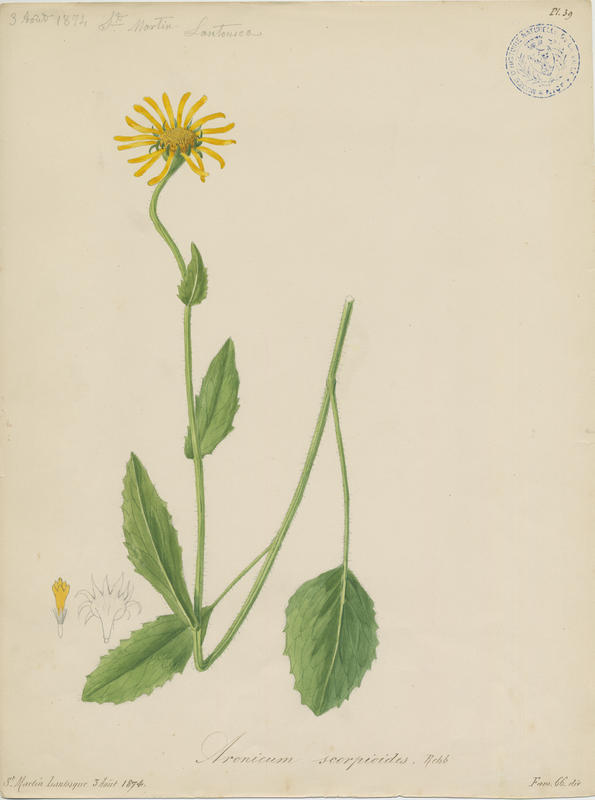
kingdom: Plantae
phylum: Tracheophyta
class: Magnoliopsida
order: Asterales
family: Asteraceae
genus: Doronicum
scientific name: Doronicum grandiflorum
